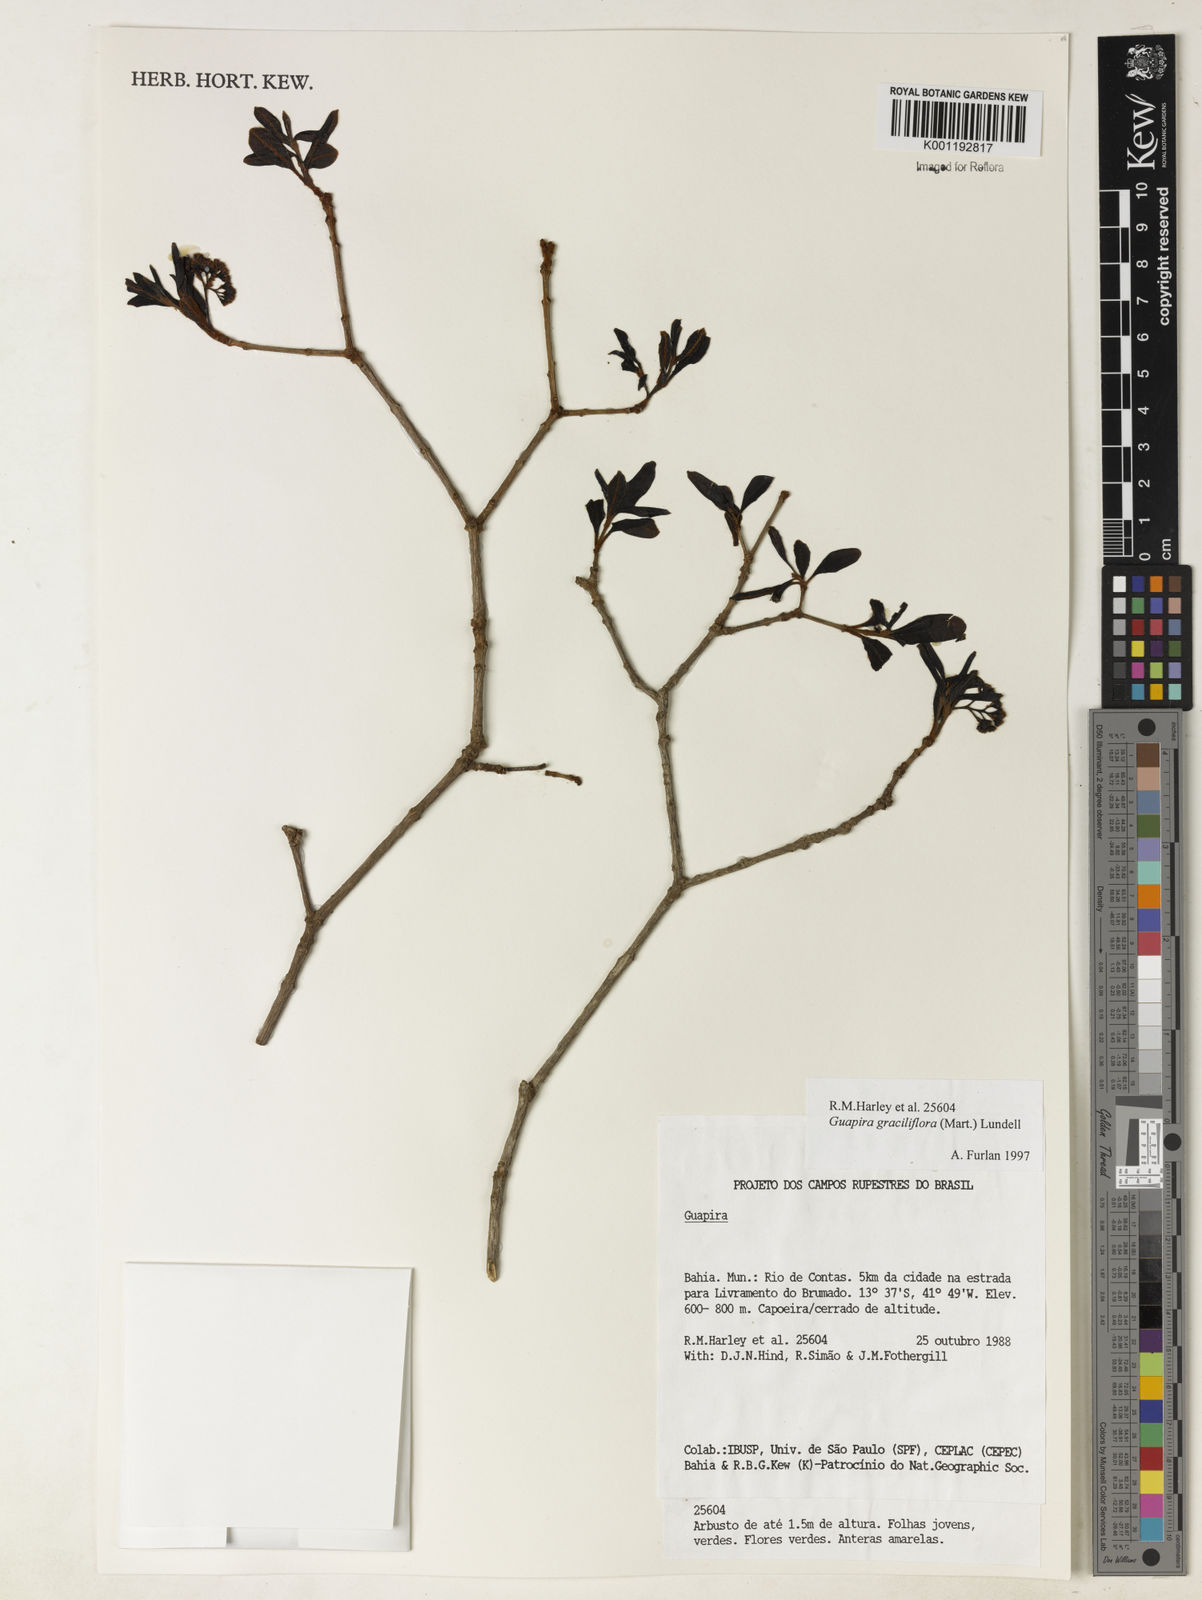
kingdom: Plantae
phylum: Tracheophyta
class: Magnoliopsida
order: Caryophyllales
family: Nyctaginaceae
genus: Guapira
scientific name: Guapira graciliflora
